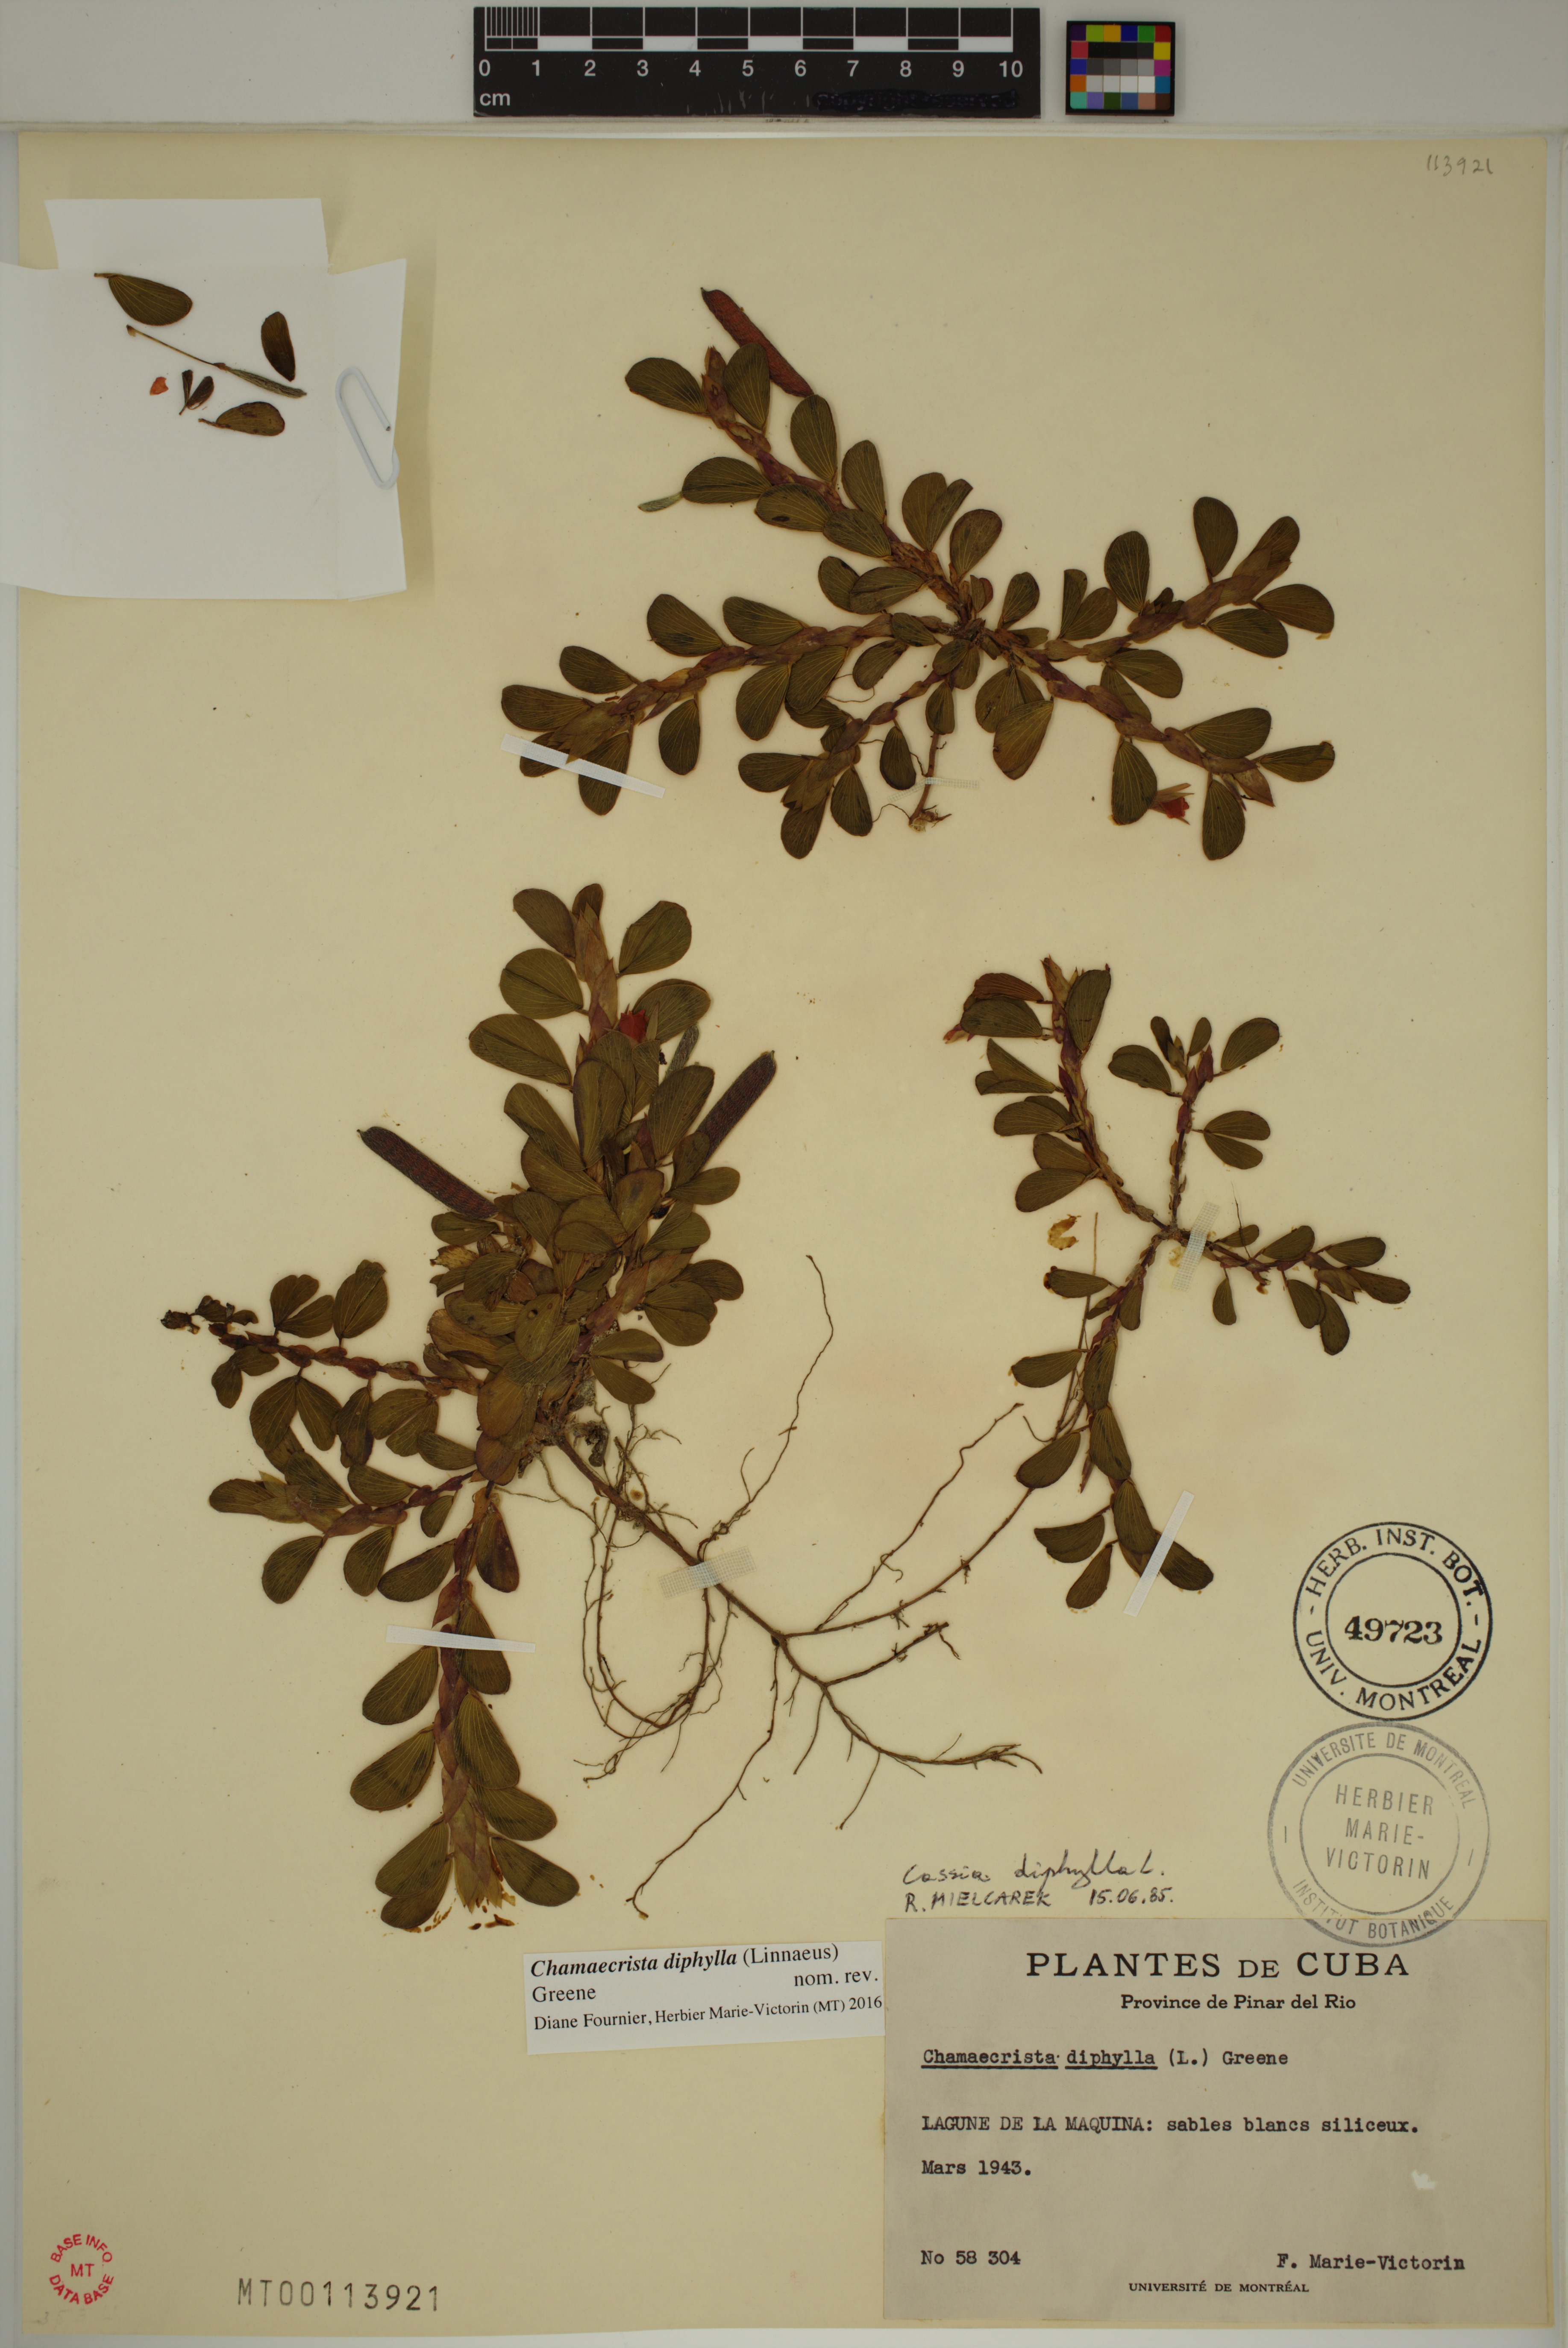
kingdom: Plantae
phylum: Tracheophyta
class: Magnoliopsida
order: Fabales
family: Fabaceae
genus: Chamaecrista
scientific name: Chamaecrista diphylla
